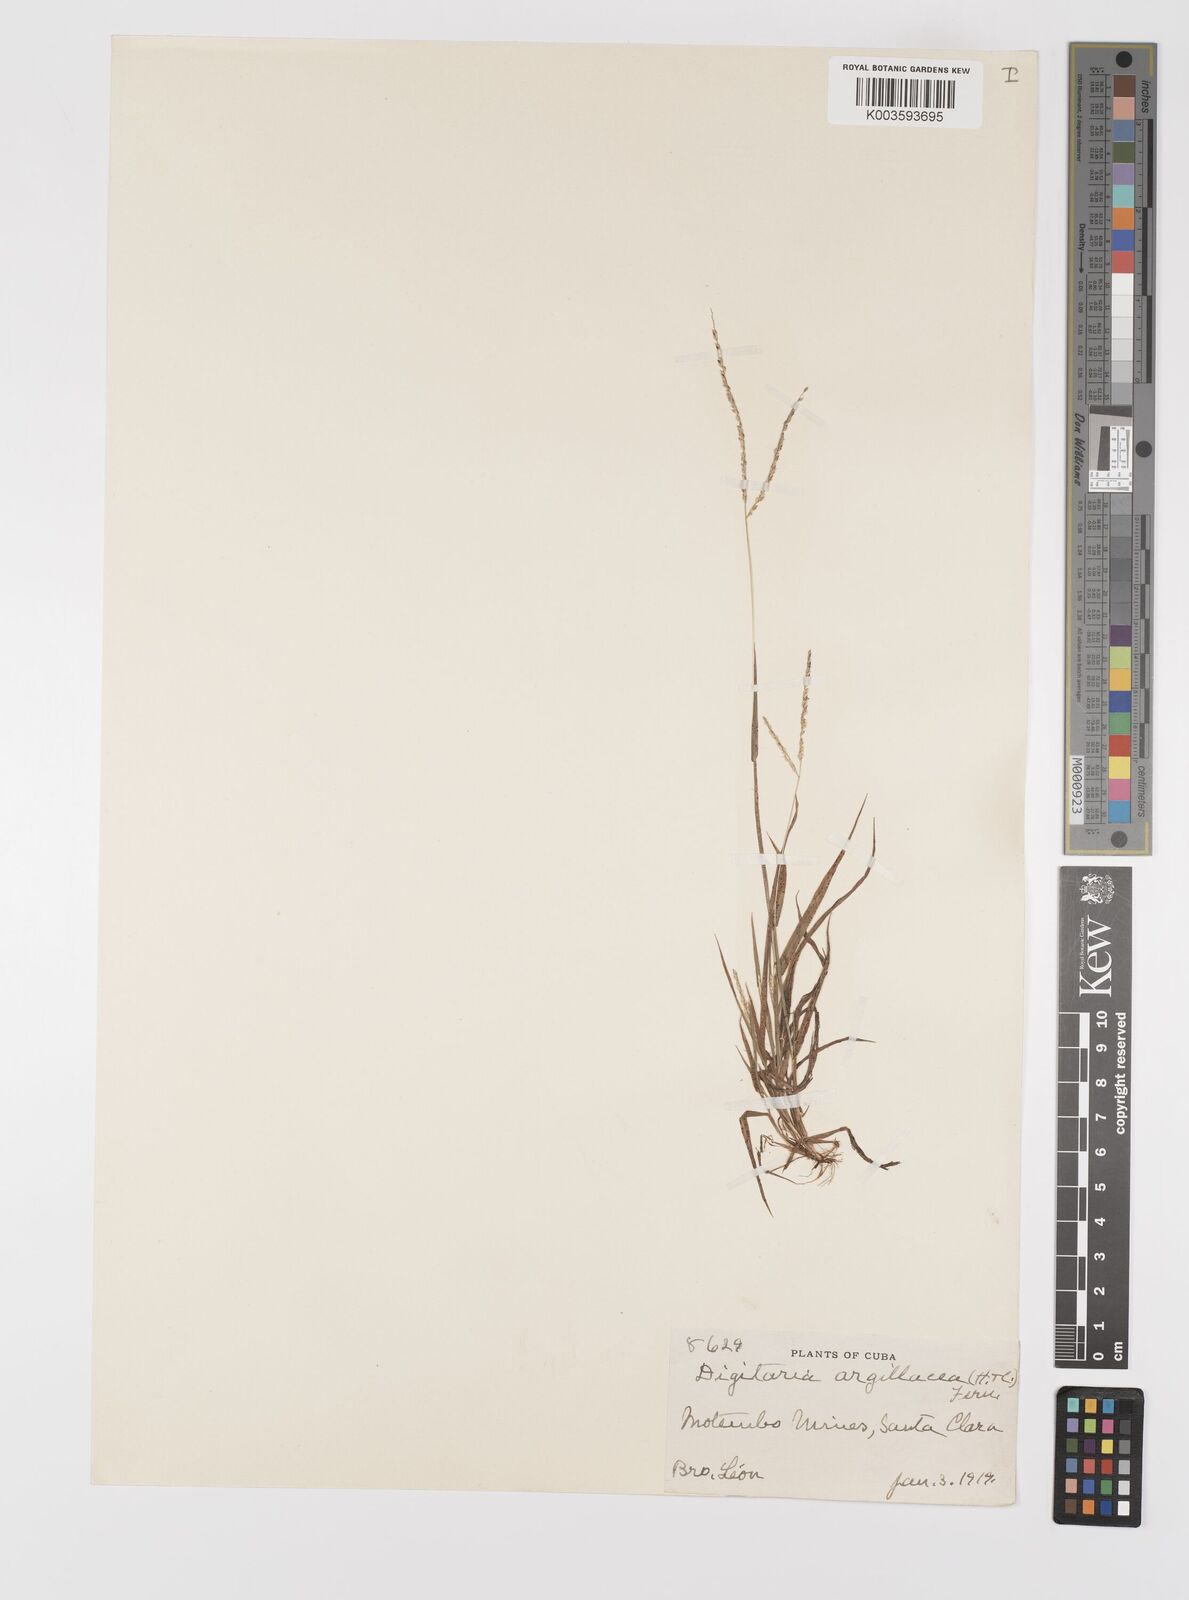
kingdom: Plantae
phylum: Tracheophyta
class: Liliopsida
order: Poales
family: Poaceae
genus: Digitaria
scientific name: Digitaria argillacea
